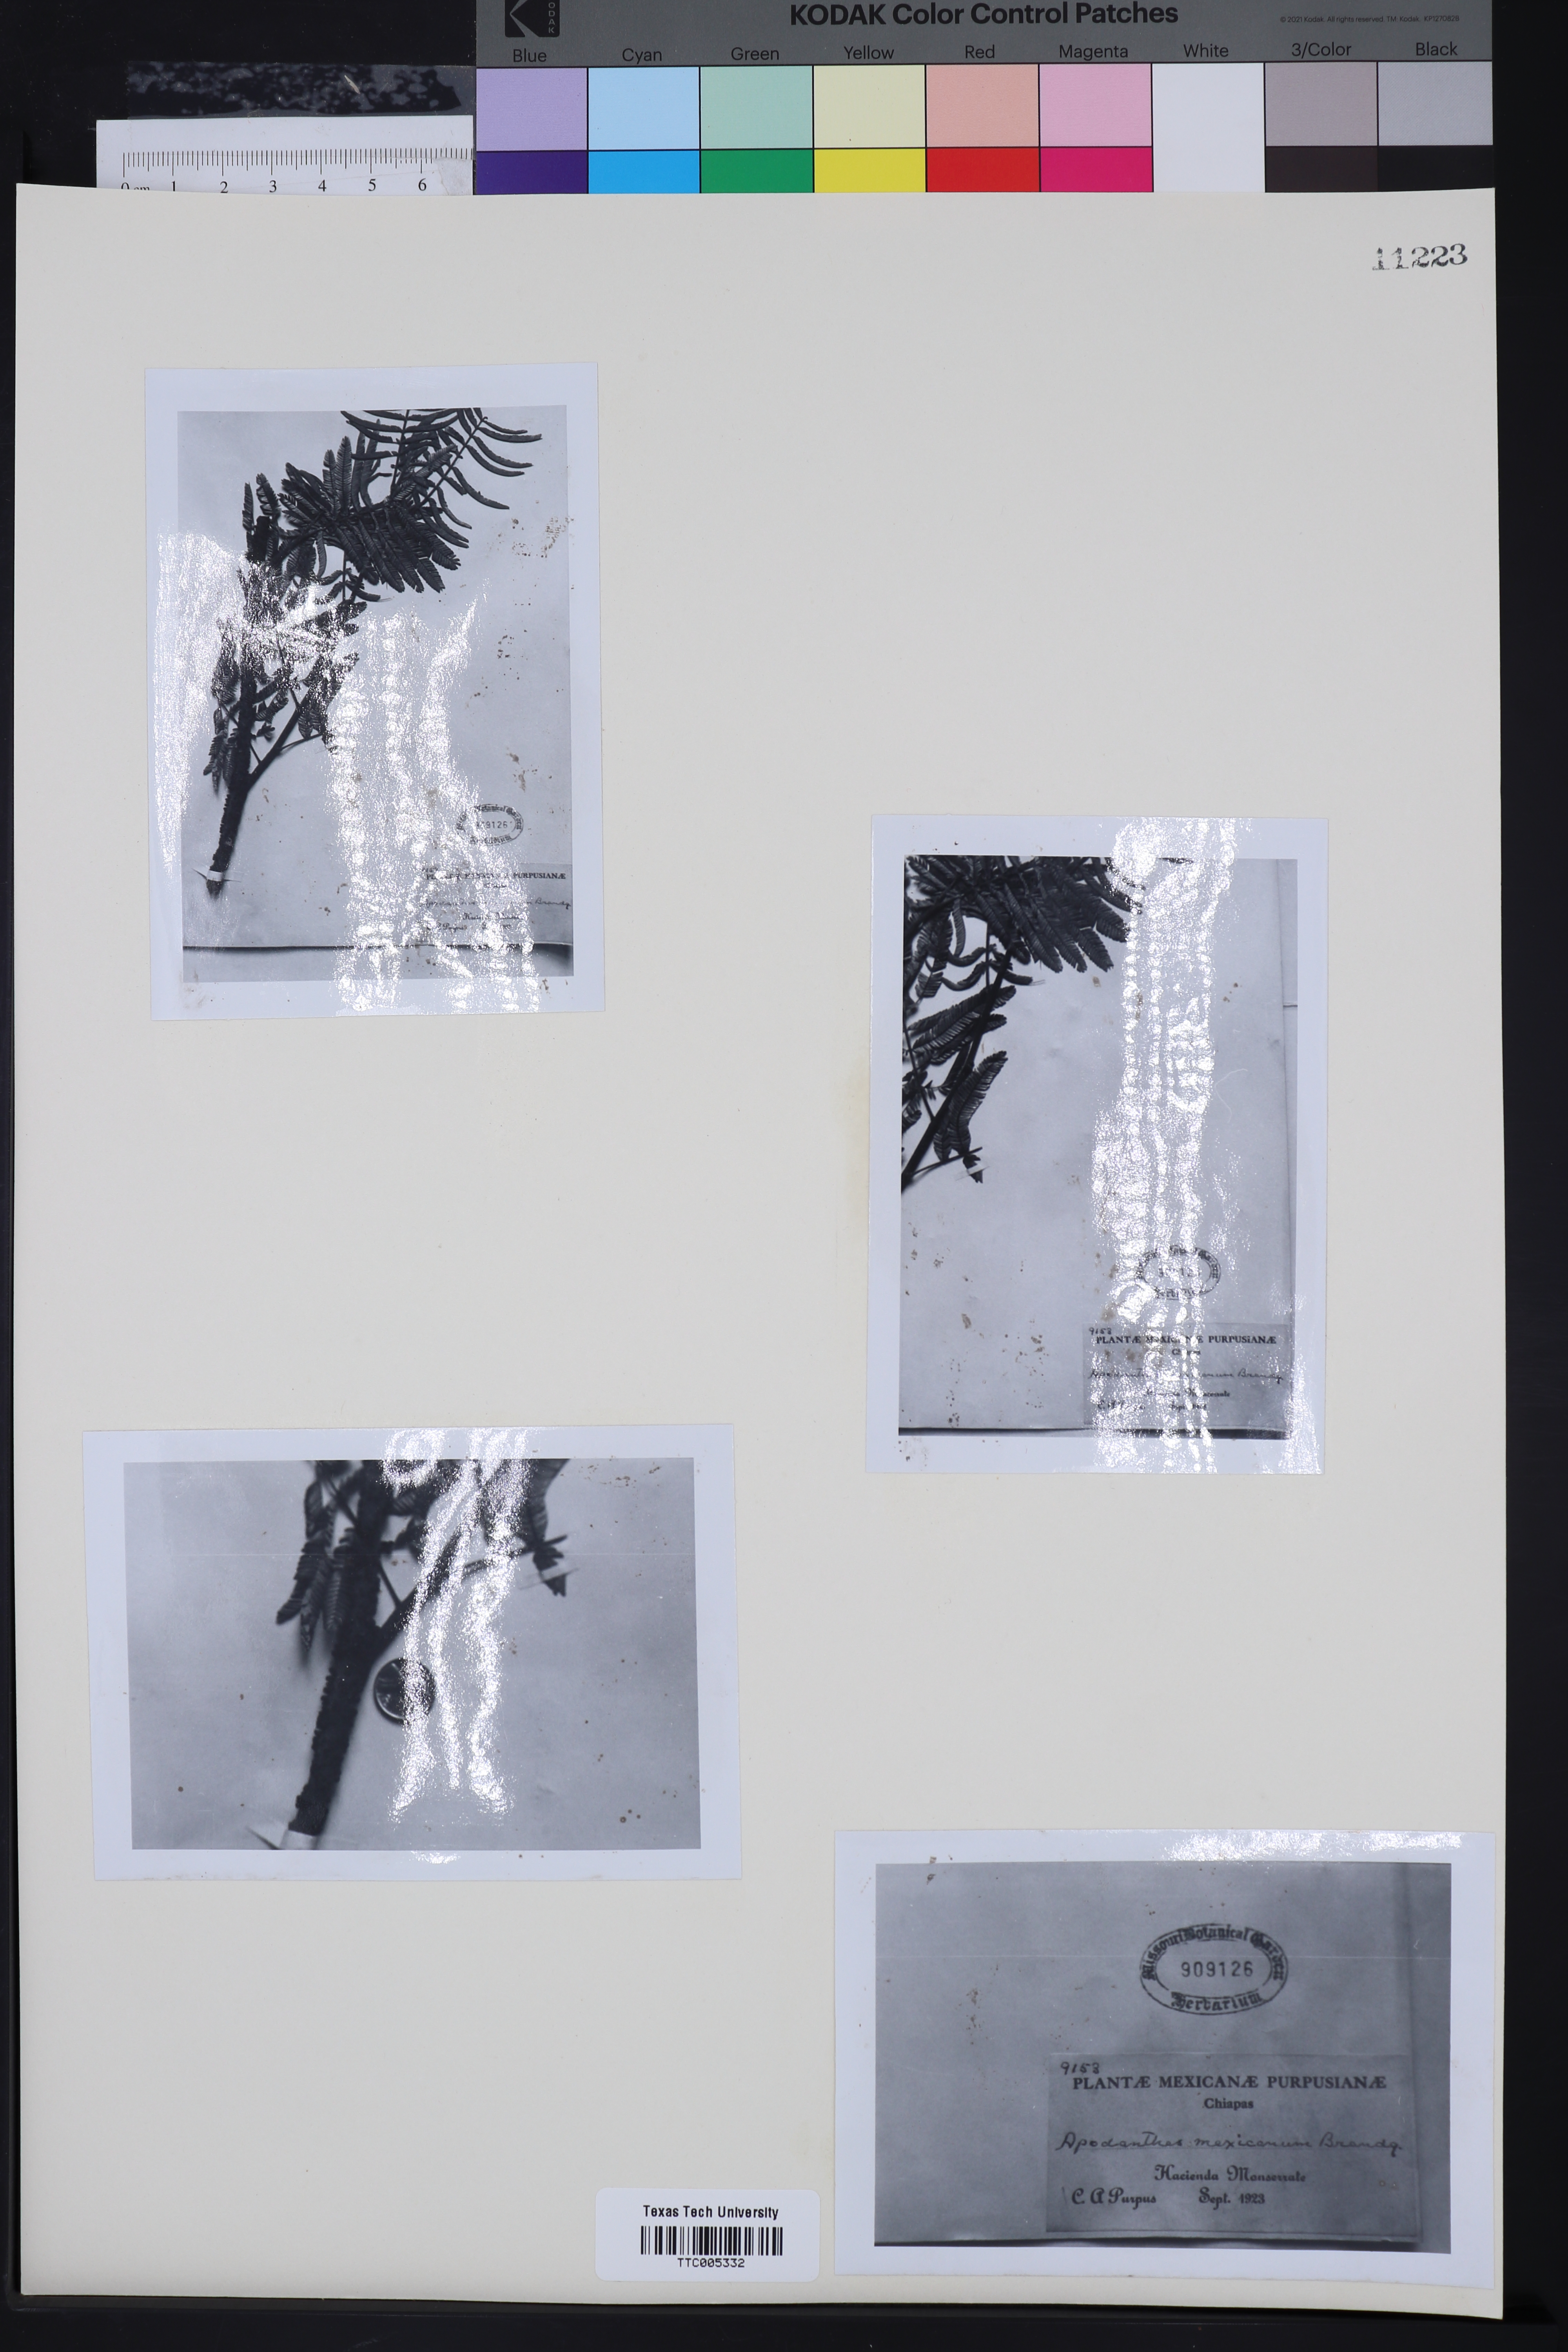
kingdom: Plantae
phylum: Tracheophyta
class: Magnoliopsida
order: Cucurbitales
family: Apodanthaceae
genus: Pilostyles
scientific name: Pilostyles mexicana
